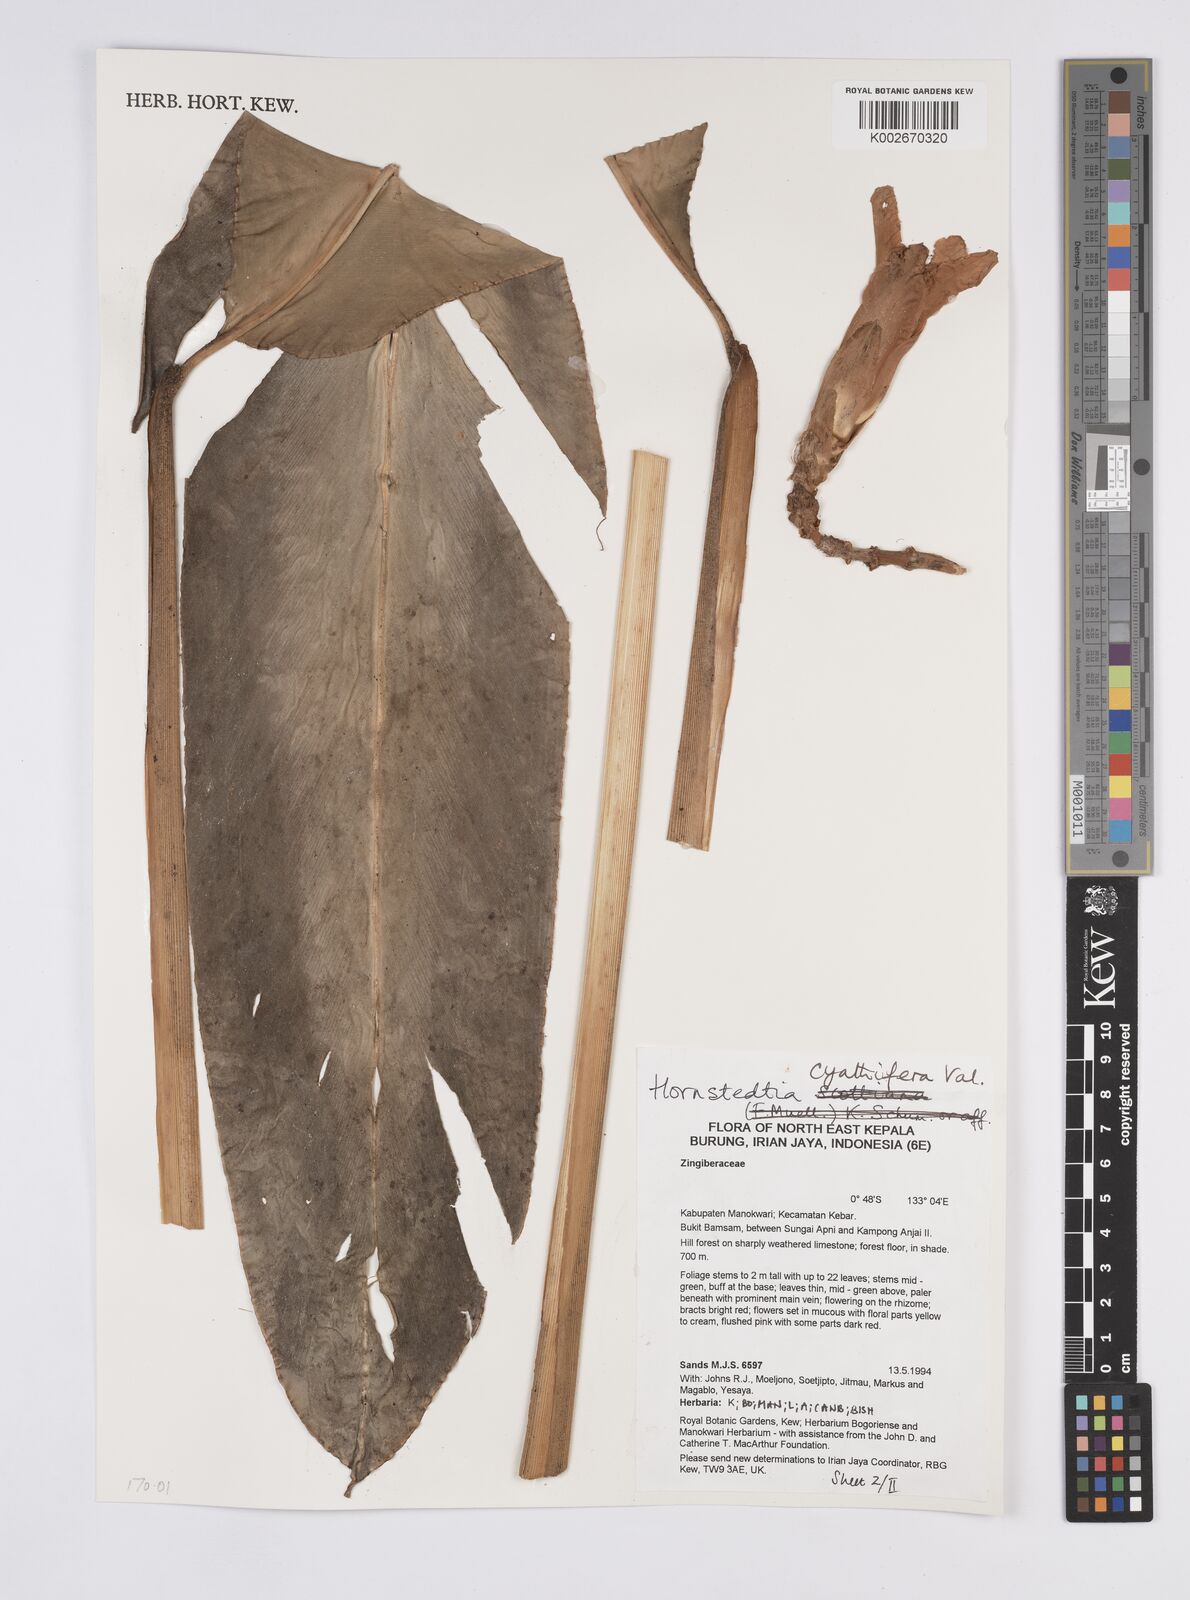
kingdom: Plantae
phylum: Tracheophyta
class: Liliopsida
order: Zingiberales
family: Zingiberaceae
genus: Hornstedtia
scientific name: Hornstedtia cyathifera
